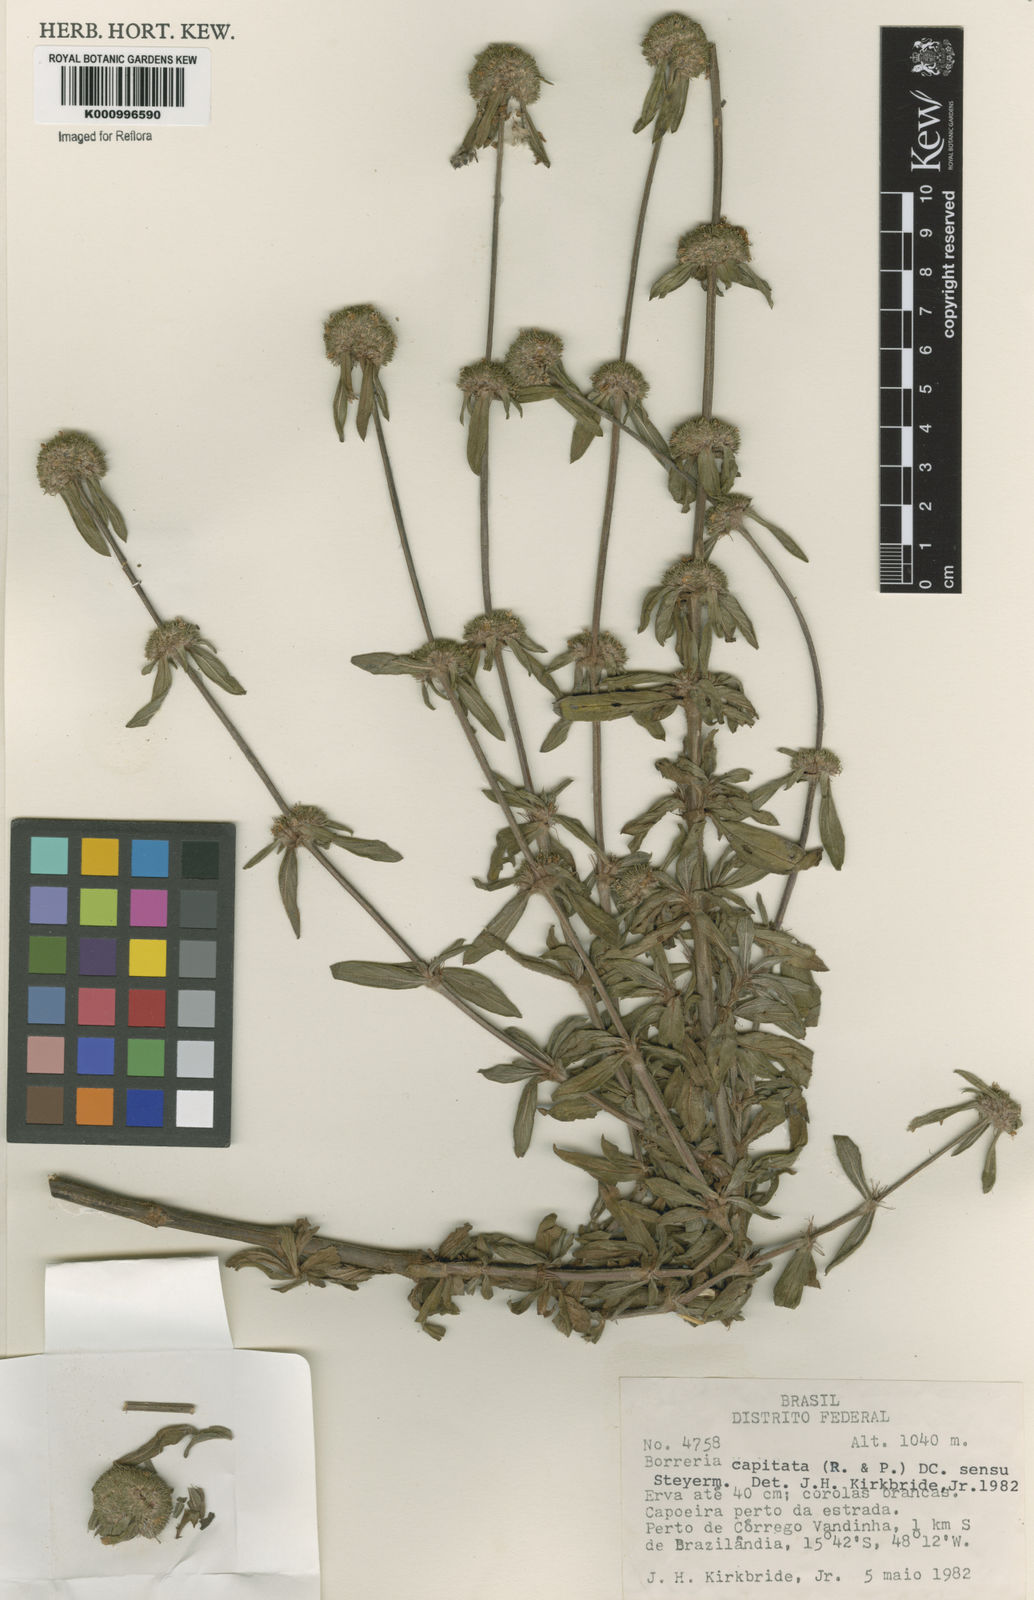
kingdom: Plantae
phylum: Tracheophyta
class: Magnoliopsida
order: Gentianales
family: Rubiaceae
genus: Spermacoce
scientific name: Spermacoce capitata
